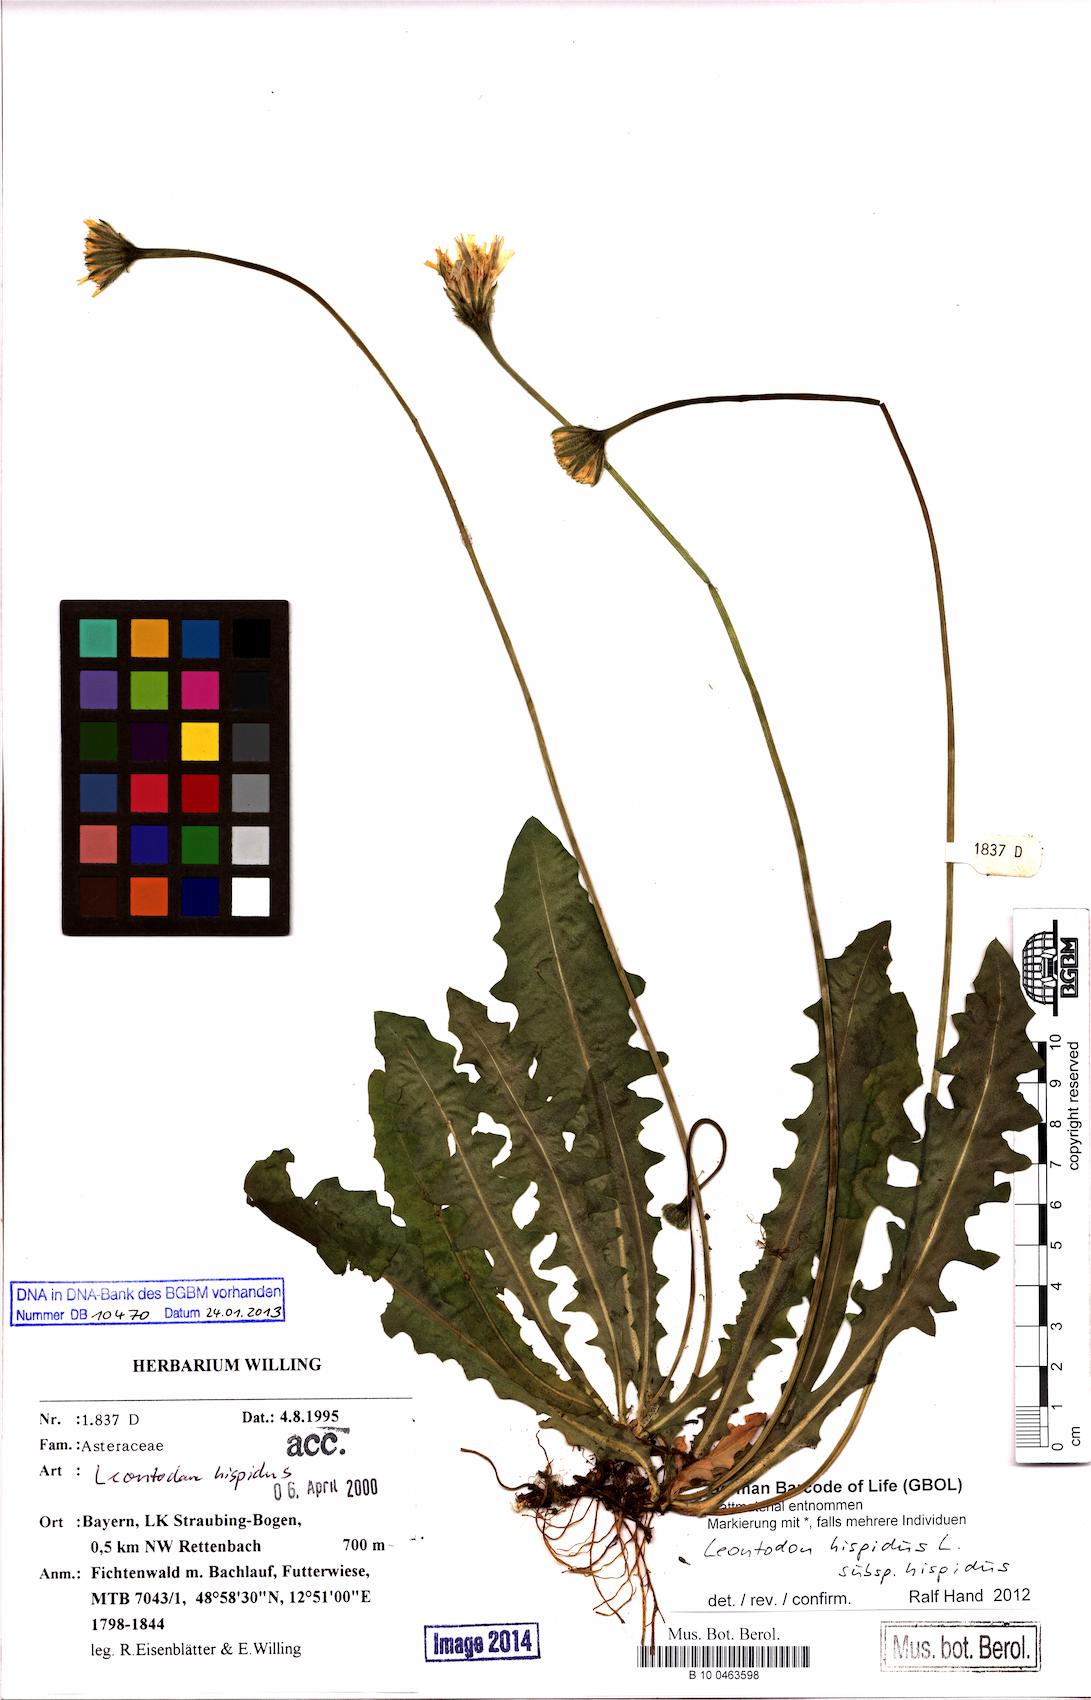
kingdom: Plantae
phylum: Tracheophyta
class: Magnoliopsida
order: Asterales
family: Asteraceae
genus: Leontodon
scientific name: Leontodon hispidus
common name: Rough hawkbit
